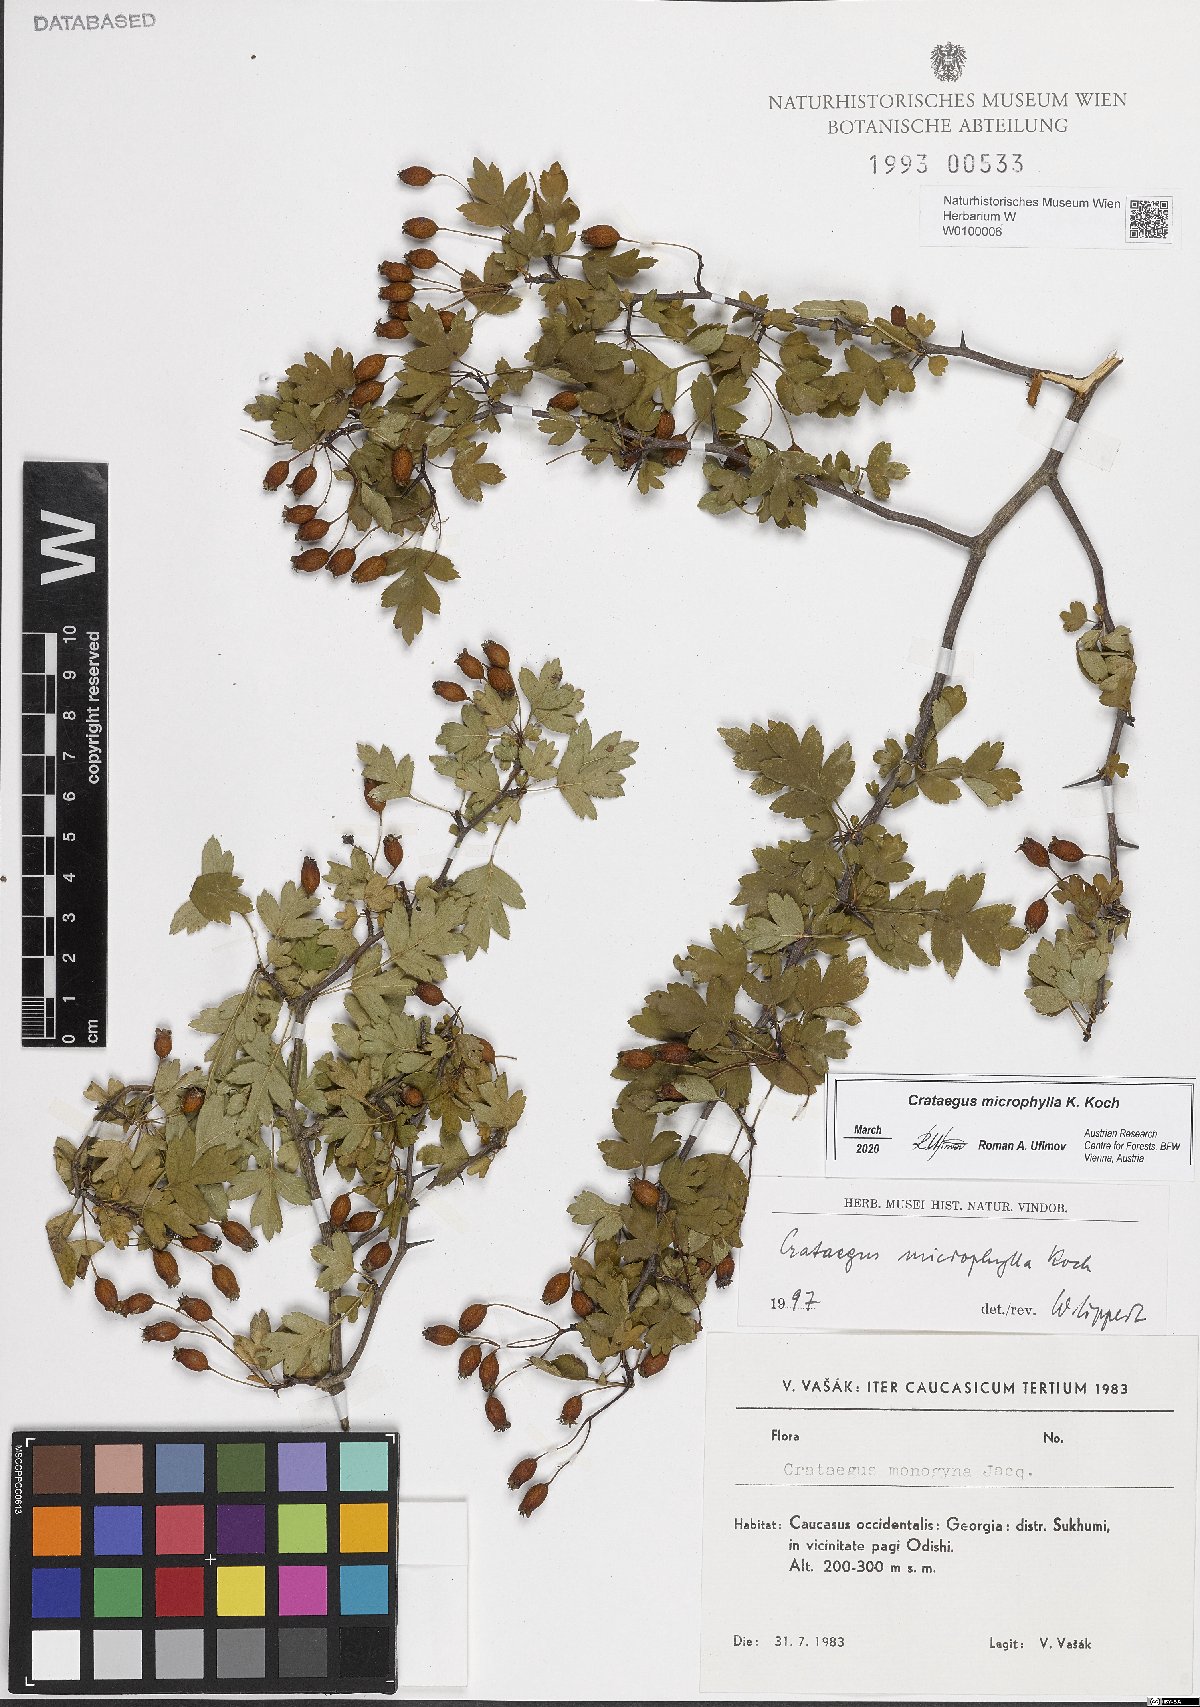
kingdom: Plantae
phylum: Tracheophyta
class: Magnoliopsida
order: Rosales
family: Rosaceae
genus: Crataegus
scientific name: Crataegus microphylla
